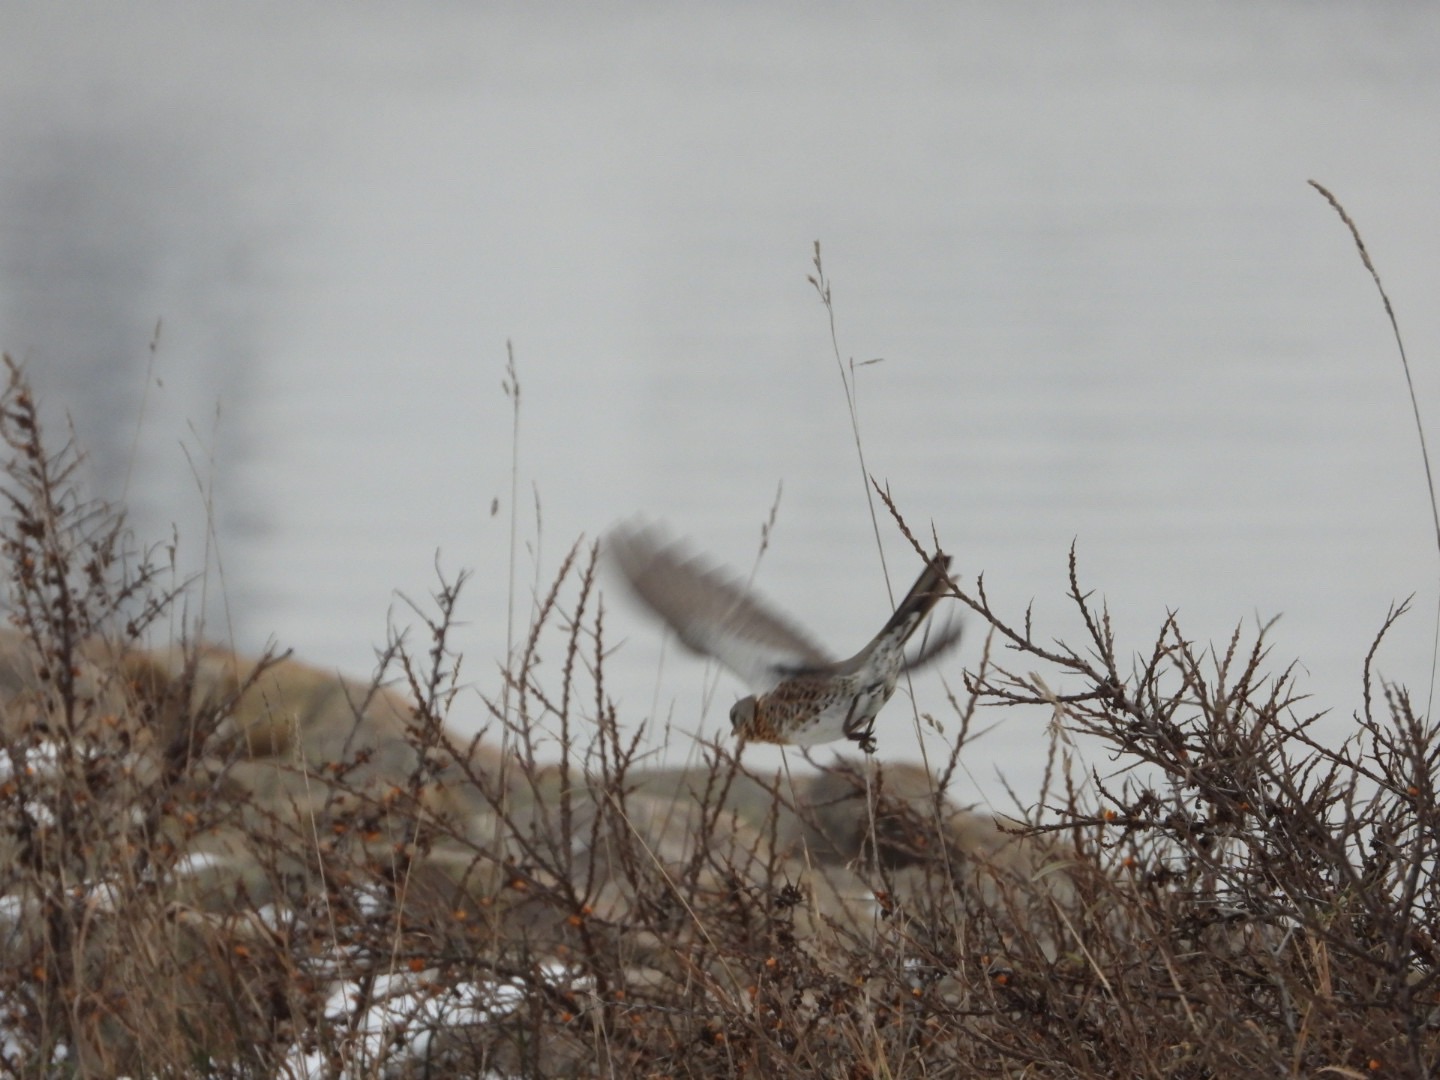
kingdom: Animalia
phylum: Chordata
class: Aves
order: Passeriformes
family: Turdidae
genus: Turdus
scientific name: Turdus pilaris
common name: Sjagger
